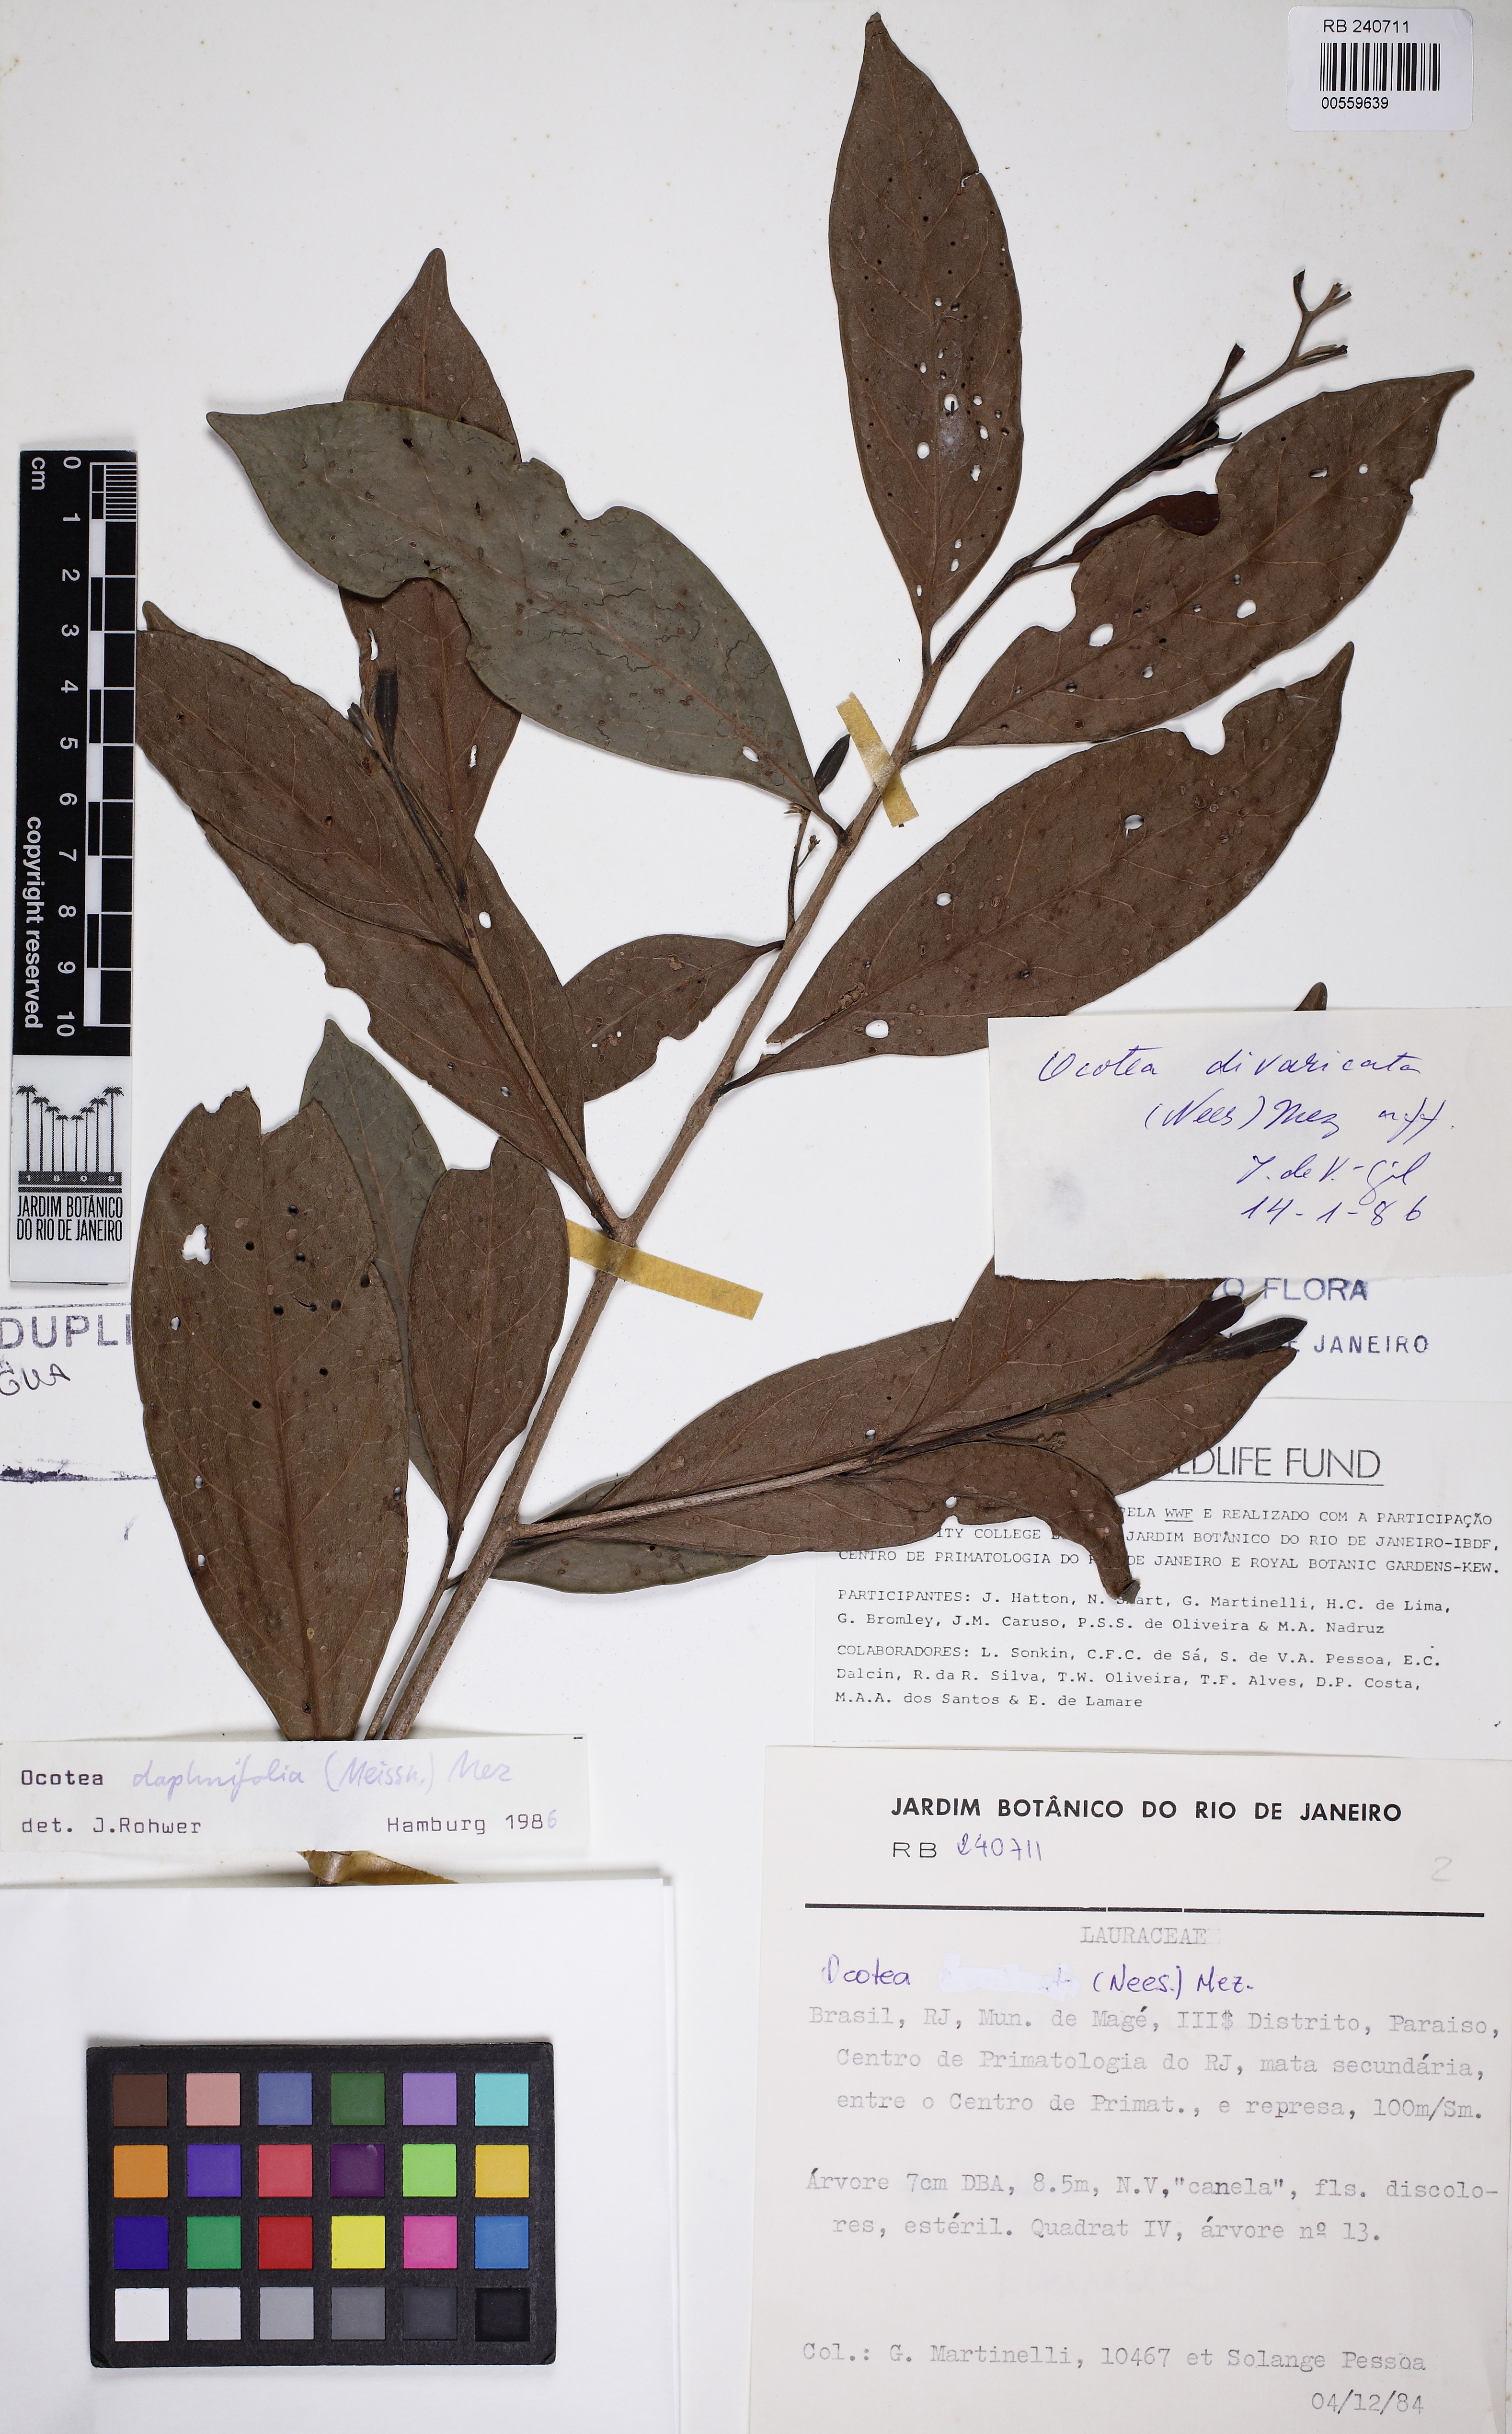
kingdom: Plantae
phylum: Tracheophyta
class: Magnoliopsida
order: Laurales
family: Lauraceae
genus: Ocotea
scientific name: Ocotea daphnifolia
